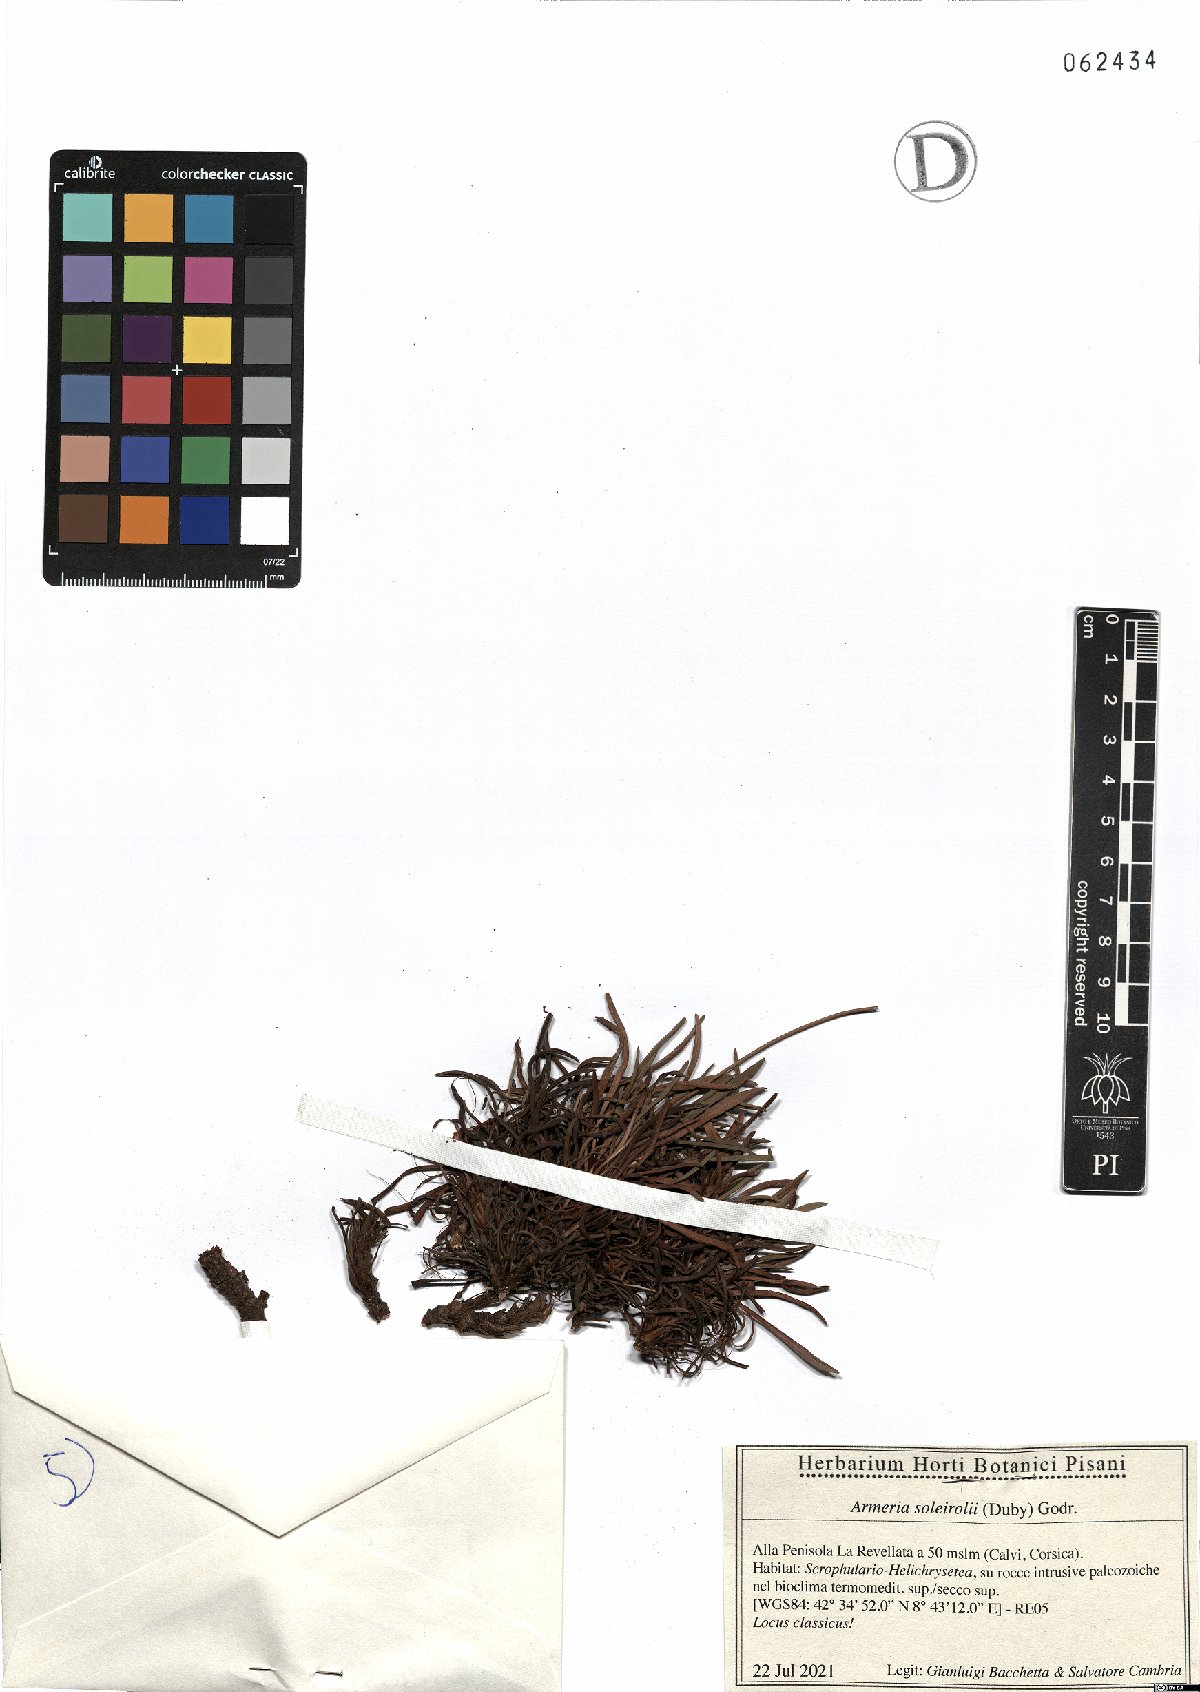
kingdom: Plantae
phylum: Tracheophyta
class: Magnoliopsida
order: Caryophyllales
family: Plumbaginaceae
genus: Armeria
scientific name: Armeria soleirolii
